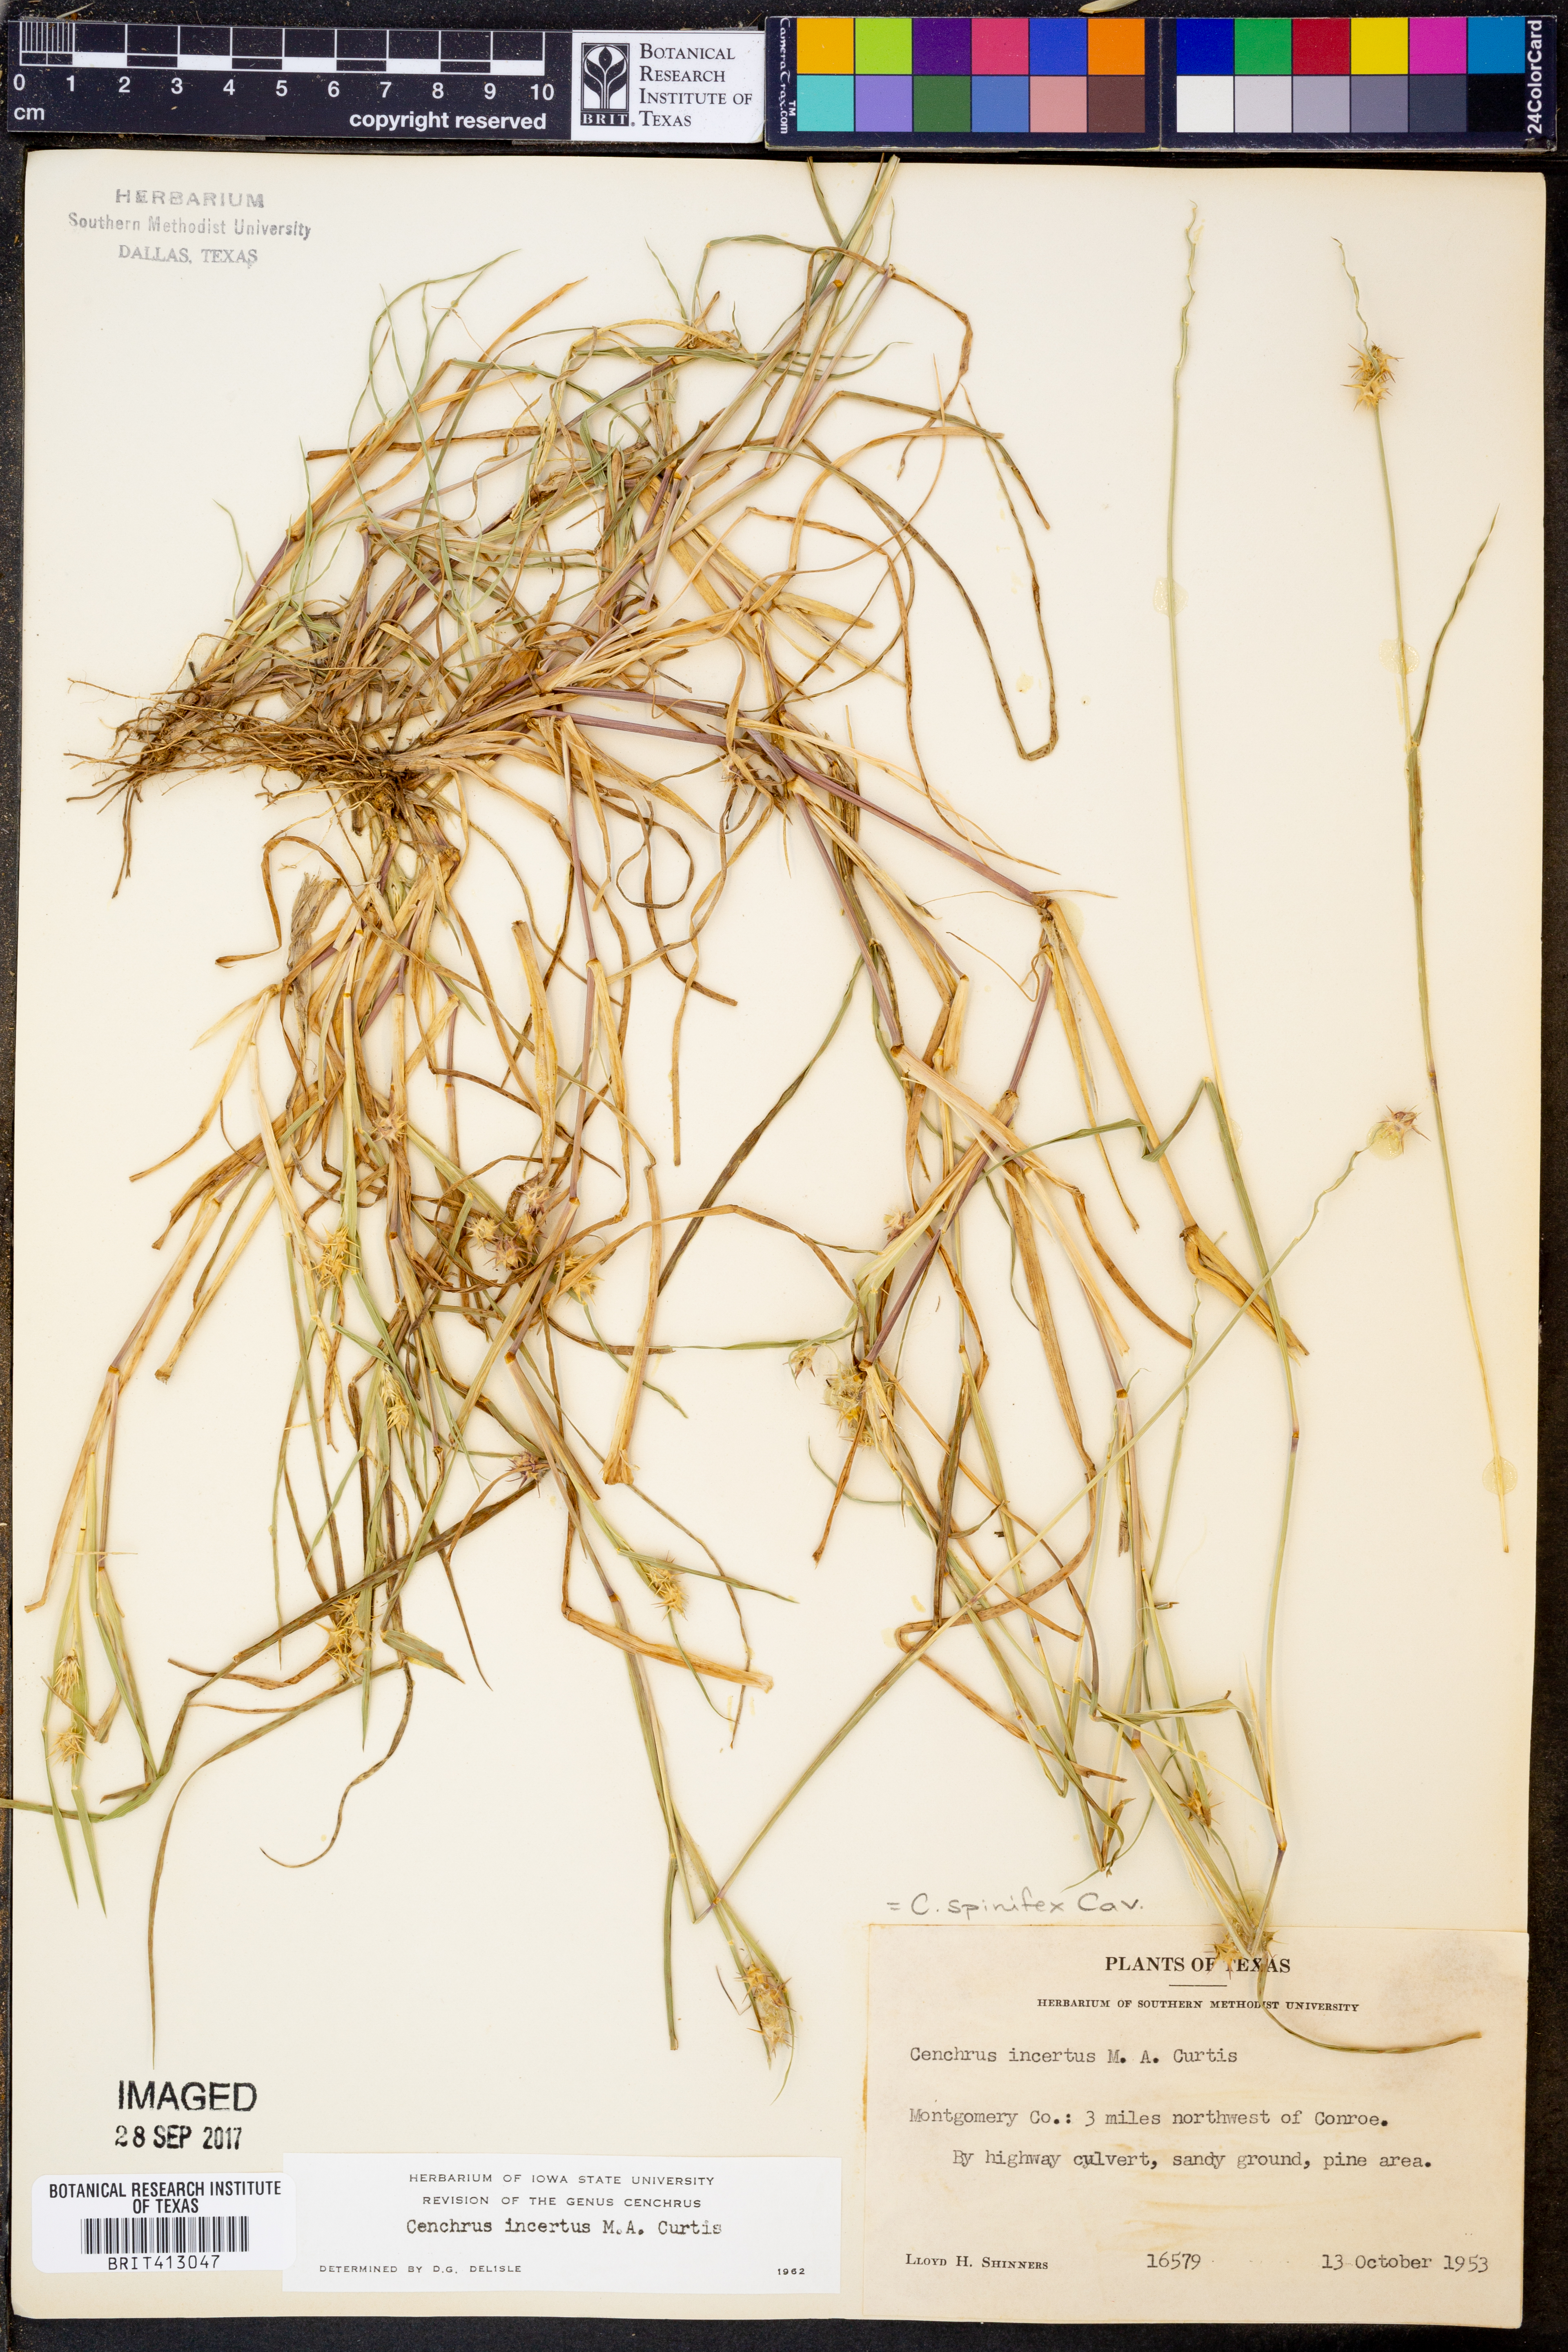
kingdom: Plantae
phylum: Tracheophyta
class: Liliopsida
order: Poales
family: Poaceae
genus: Cenchrus
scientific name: Cenchrus spinifex
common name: Coast sandbur
